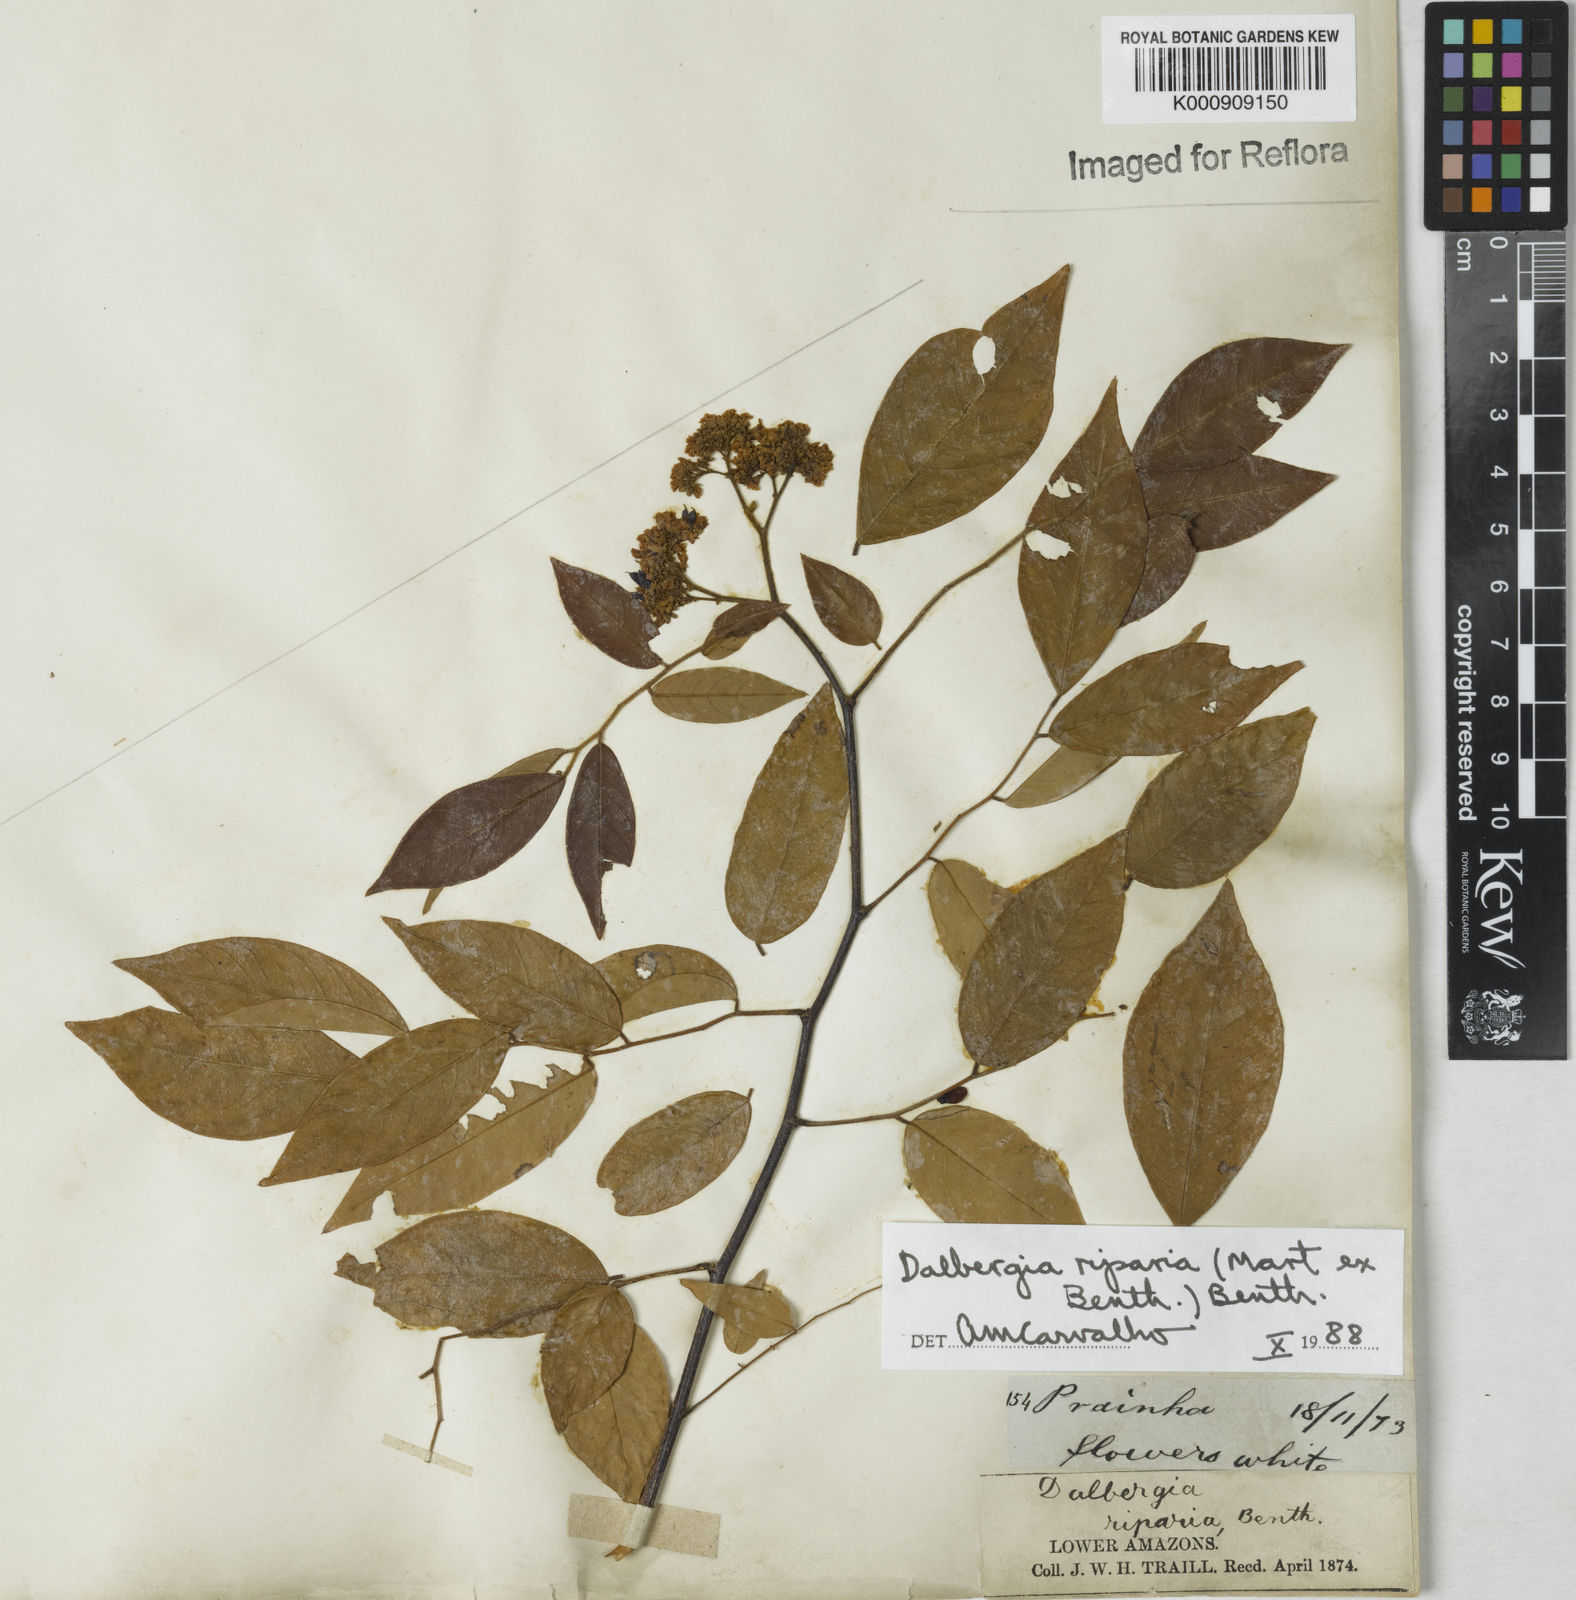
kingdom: Plantae
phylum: Tracheophyta
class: Magnoliopsida
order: Fabales
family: Fabaceae
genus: Dalbergia
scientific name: Dalbergia riparia
